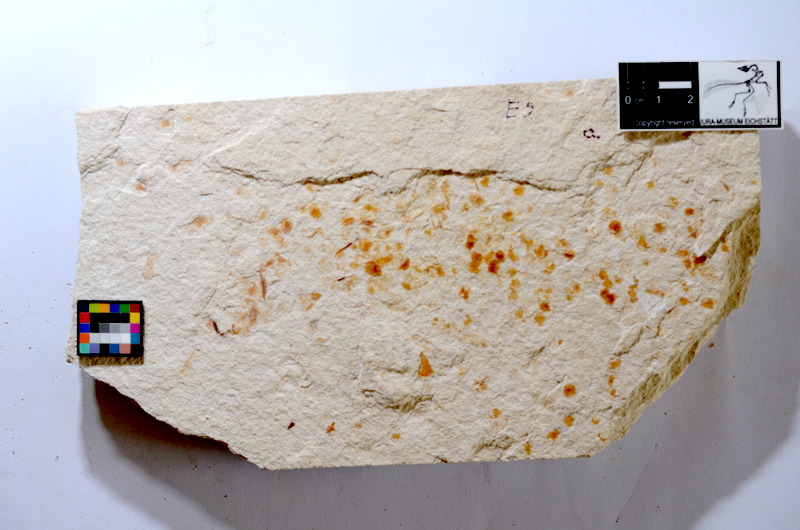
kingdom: Animalia
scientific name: Animalia
